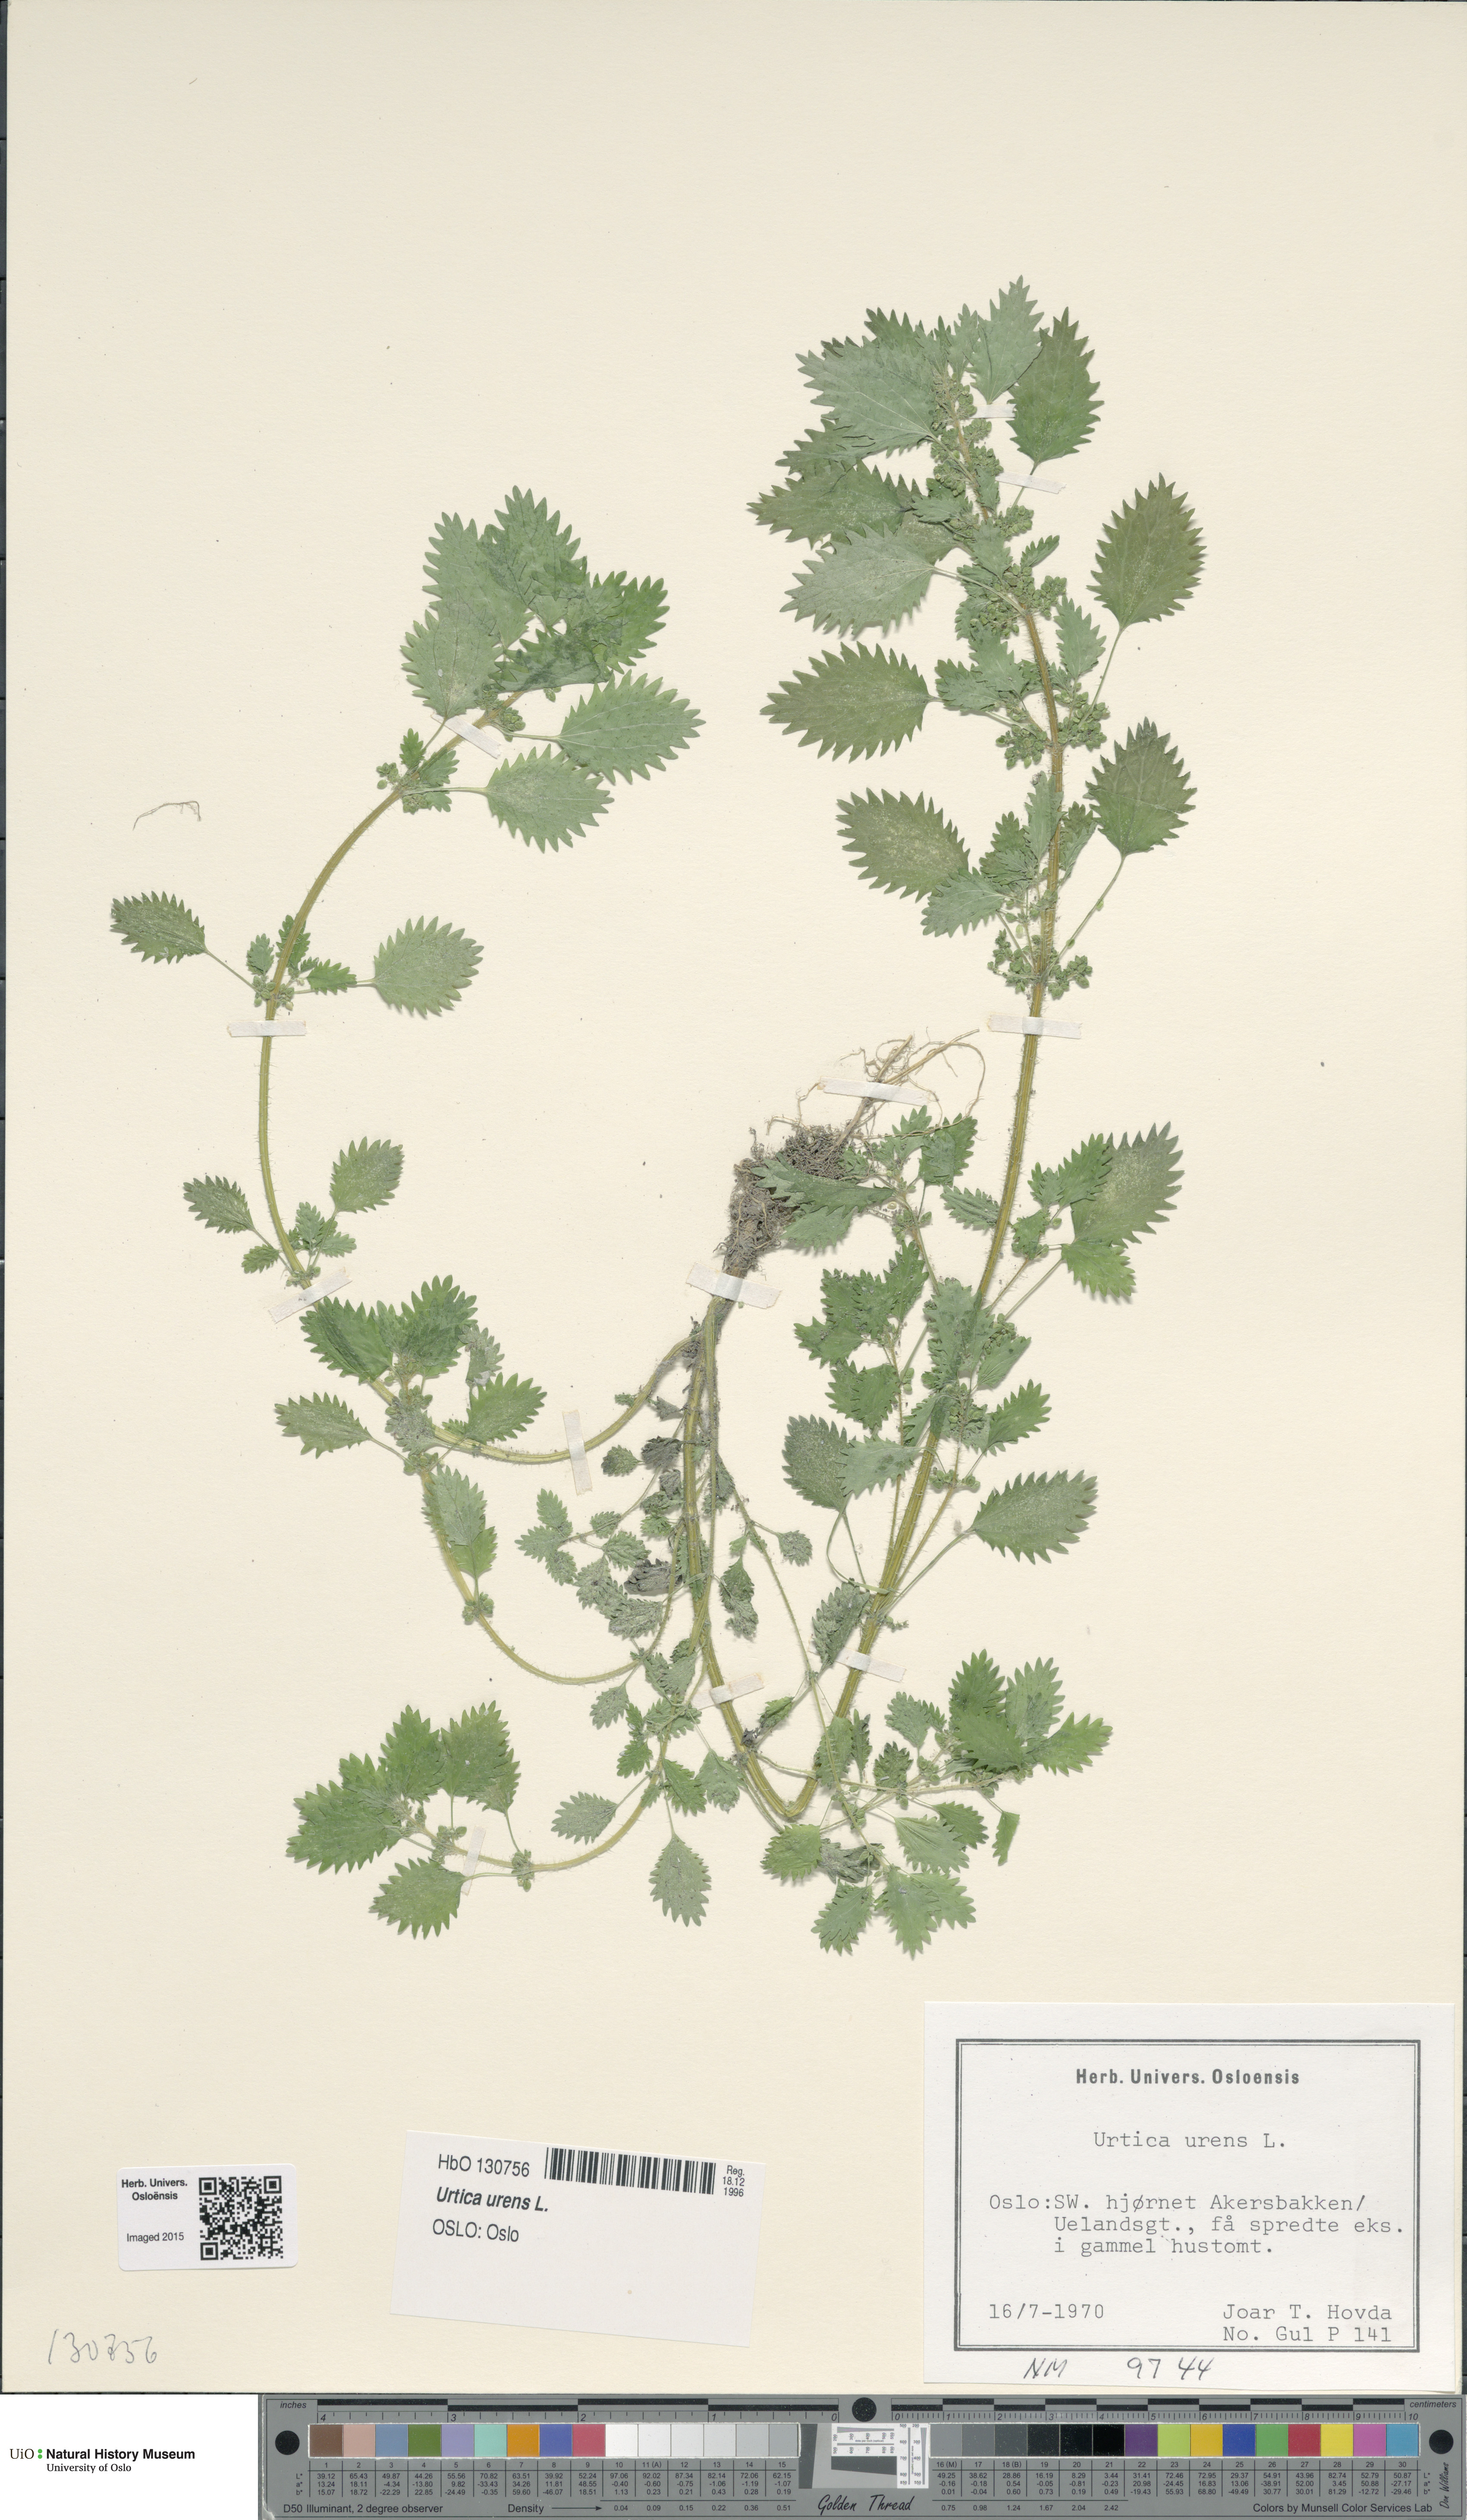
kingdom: Plantae
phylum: Tracheophyta
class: Magnoliopsida
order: Rosales
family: Urticaceae
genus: Urtica
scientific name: Urtica urens
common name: Dwarf nettle
